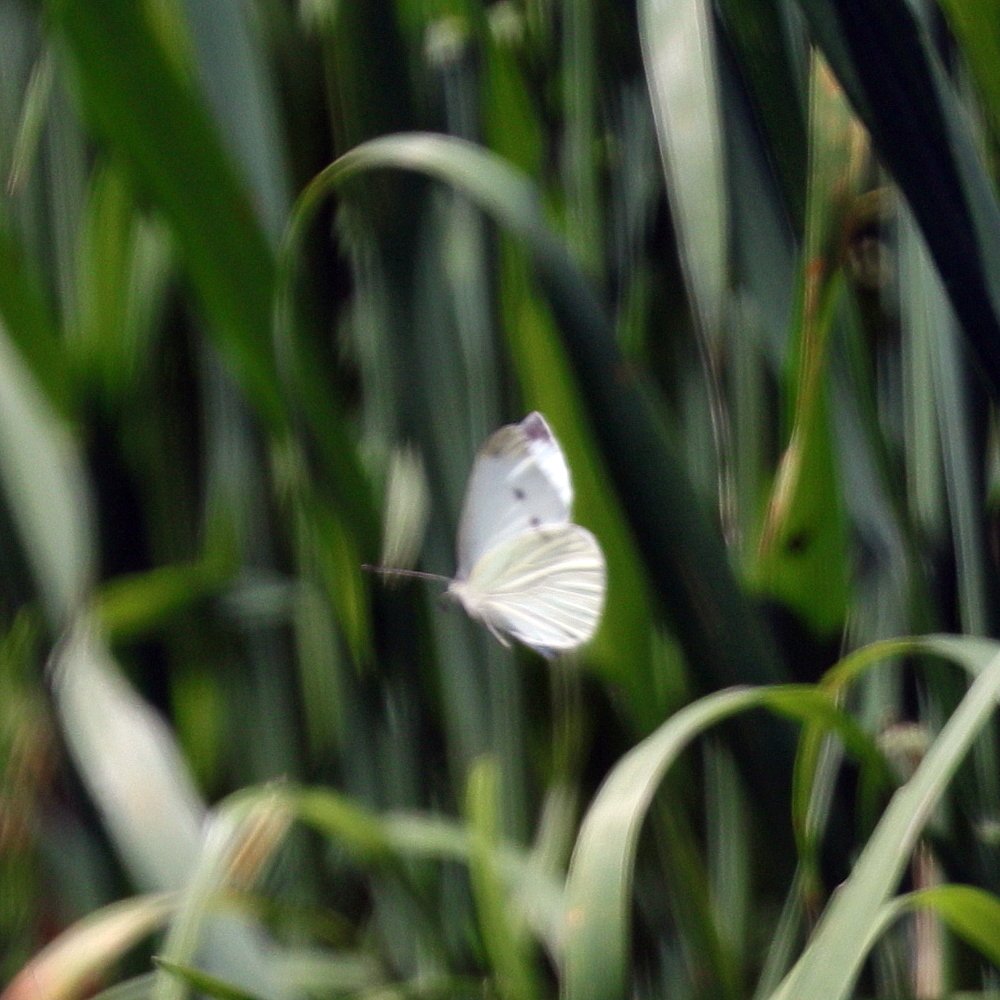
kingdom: Animalia
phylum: Arthropoda
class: Insecta
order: Lepidoptera
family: Pieridae
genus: Pieris
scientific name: Pieris rapae
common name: Cabbage White
